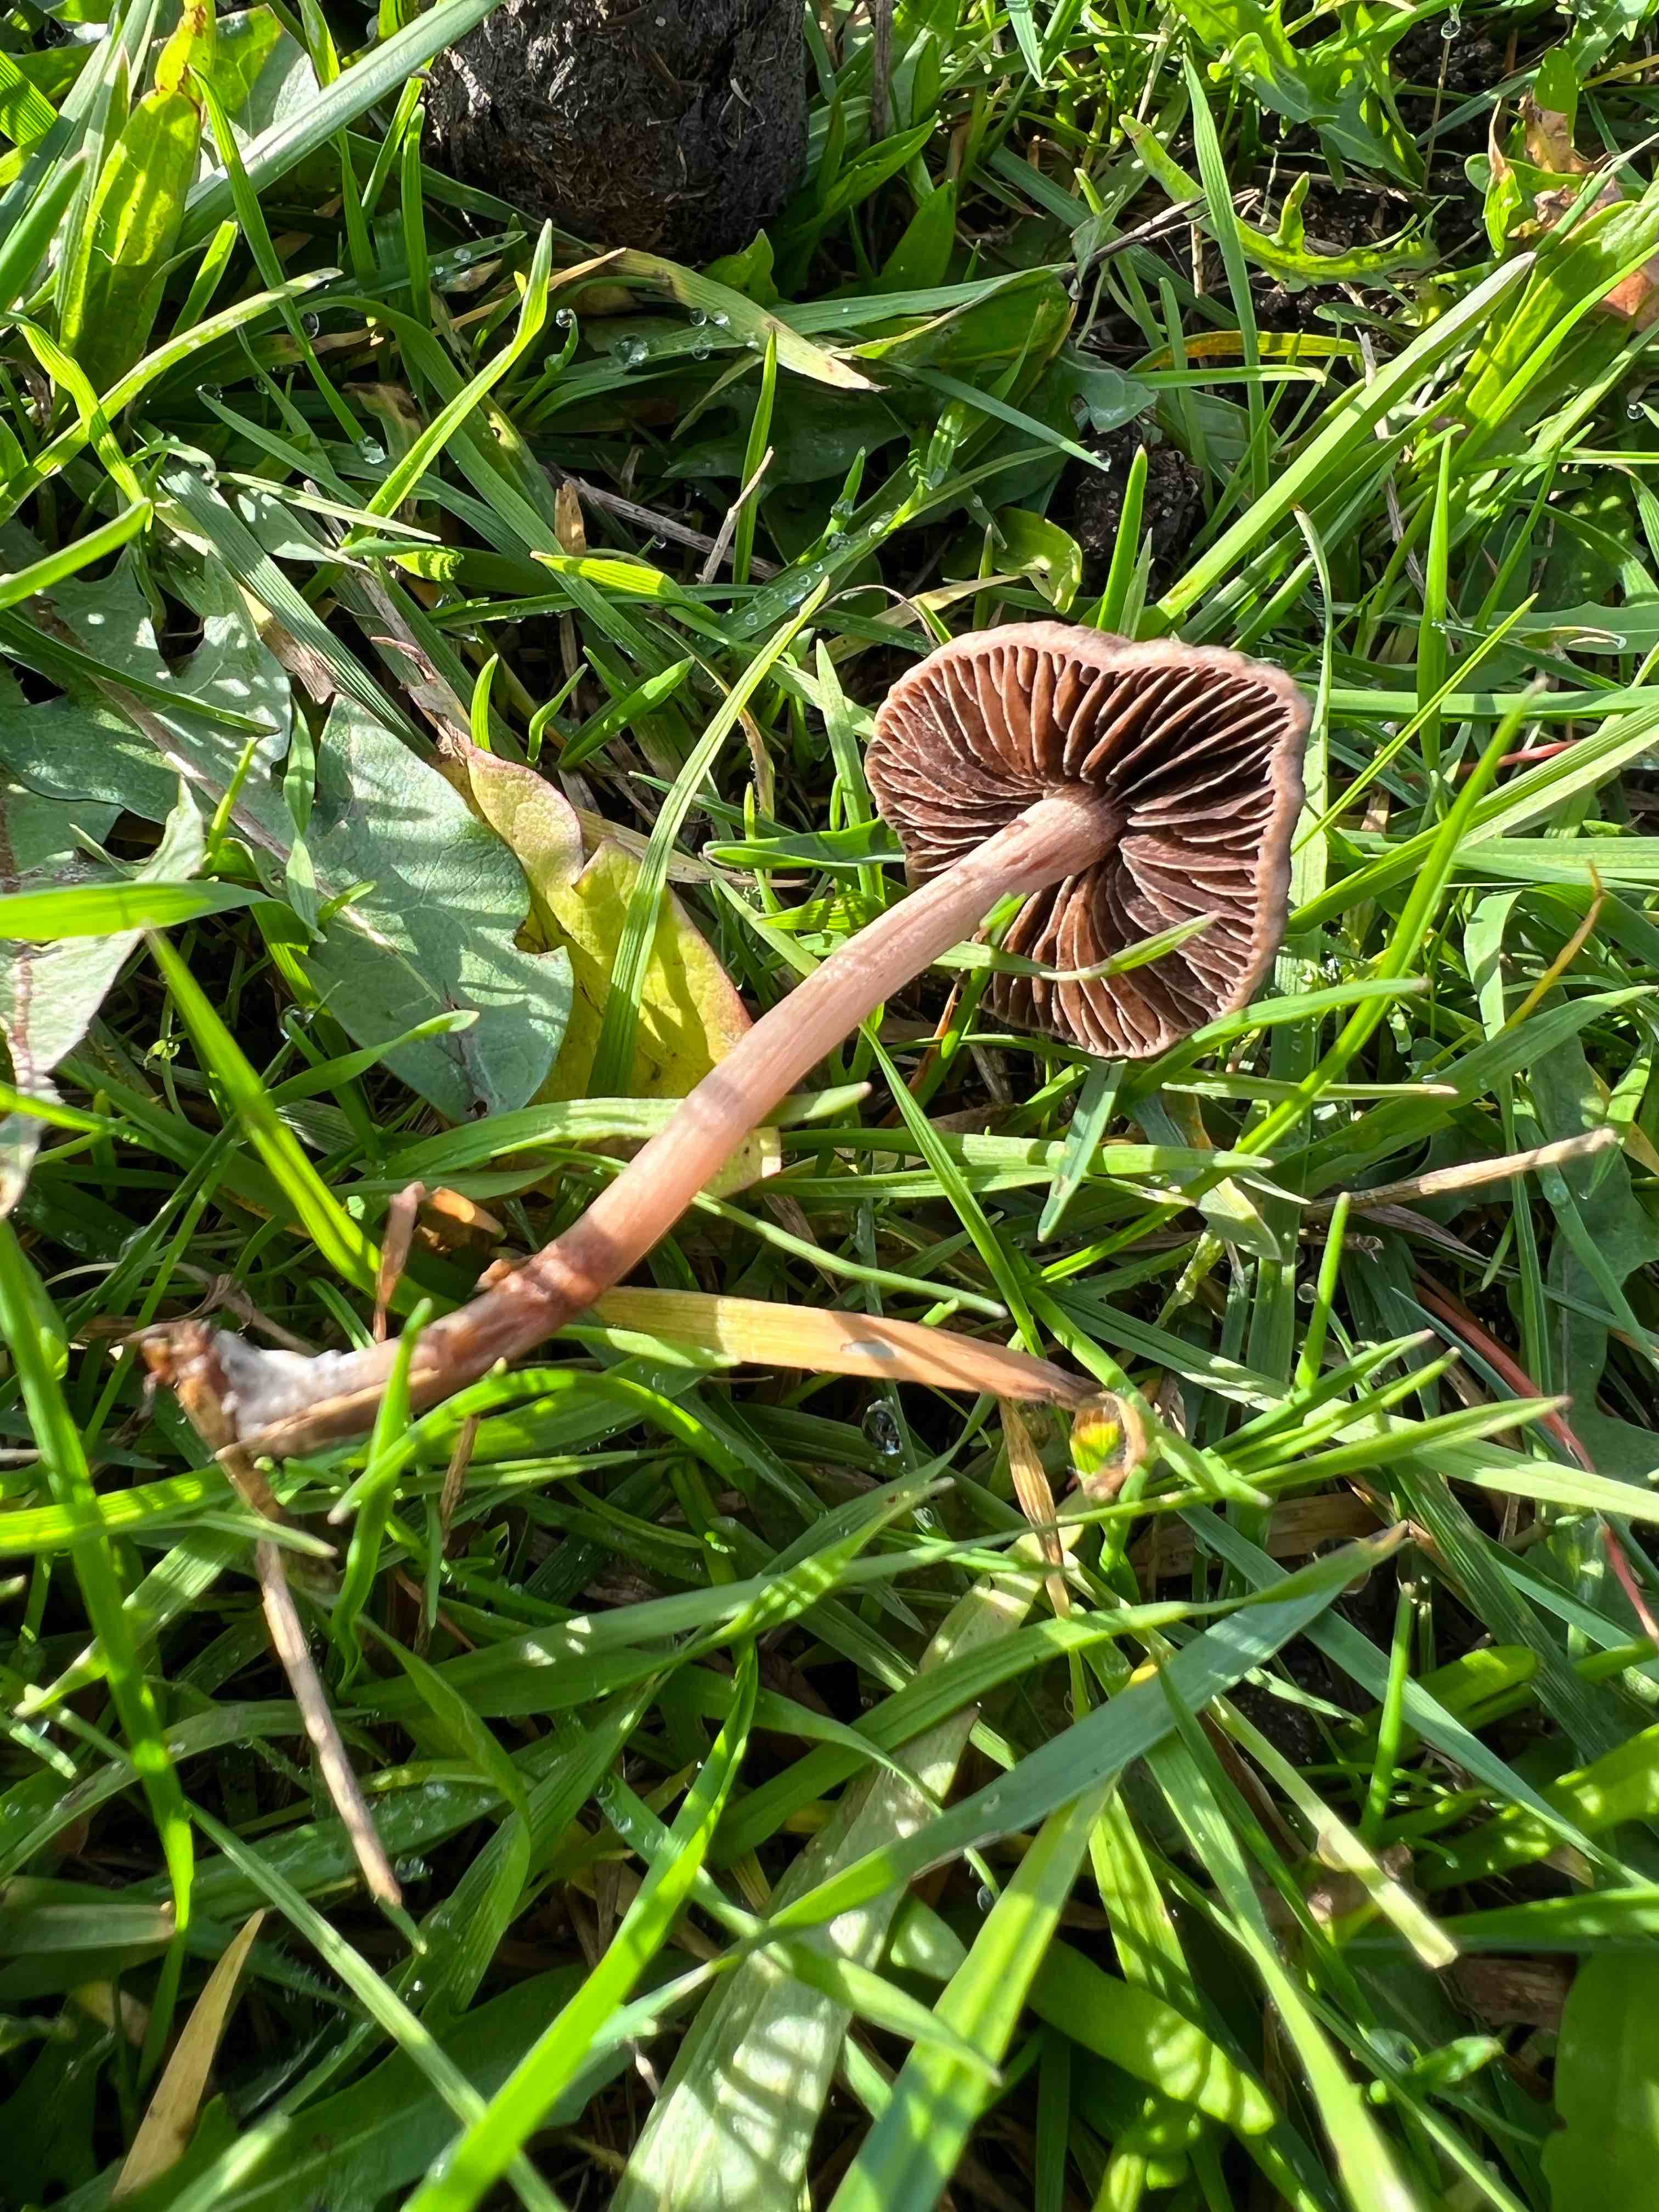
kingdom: Fungi
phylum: Basidiomycota
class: Agaricomycetes
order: Agaricales
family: Bolbitiaceae
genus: Panaeolina
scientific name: Panaeolina foenisecii
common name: høslætsvamp
